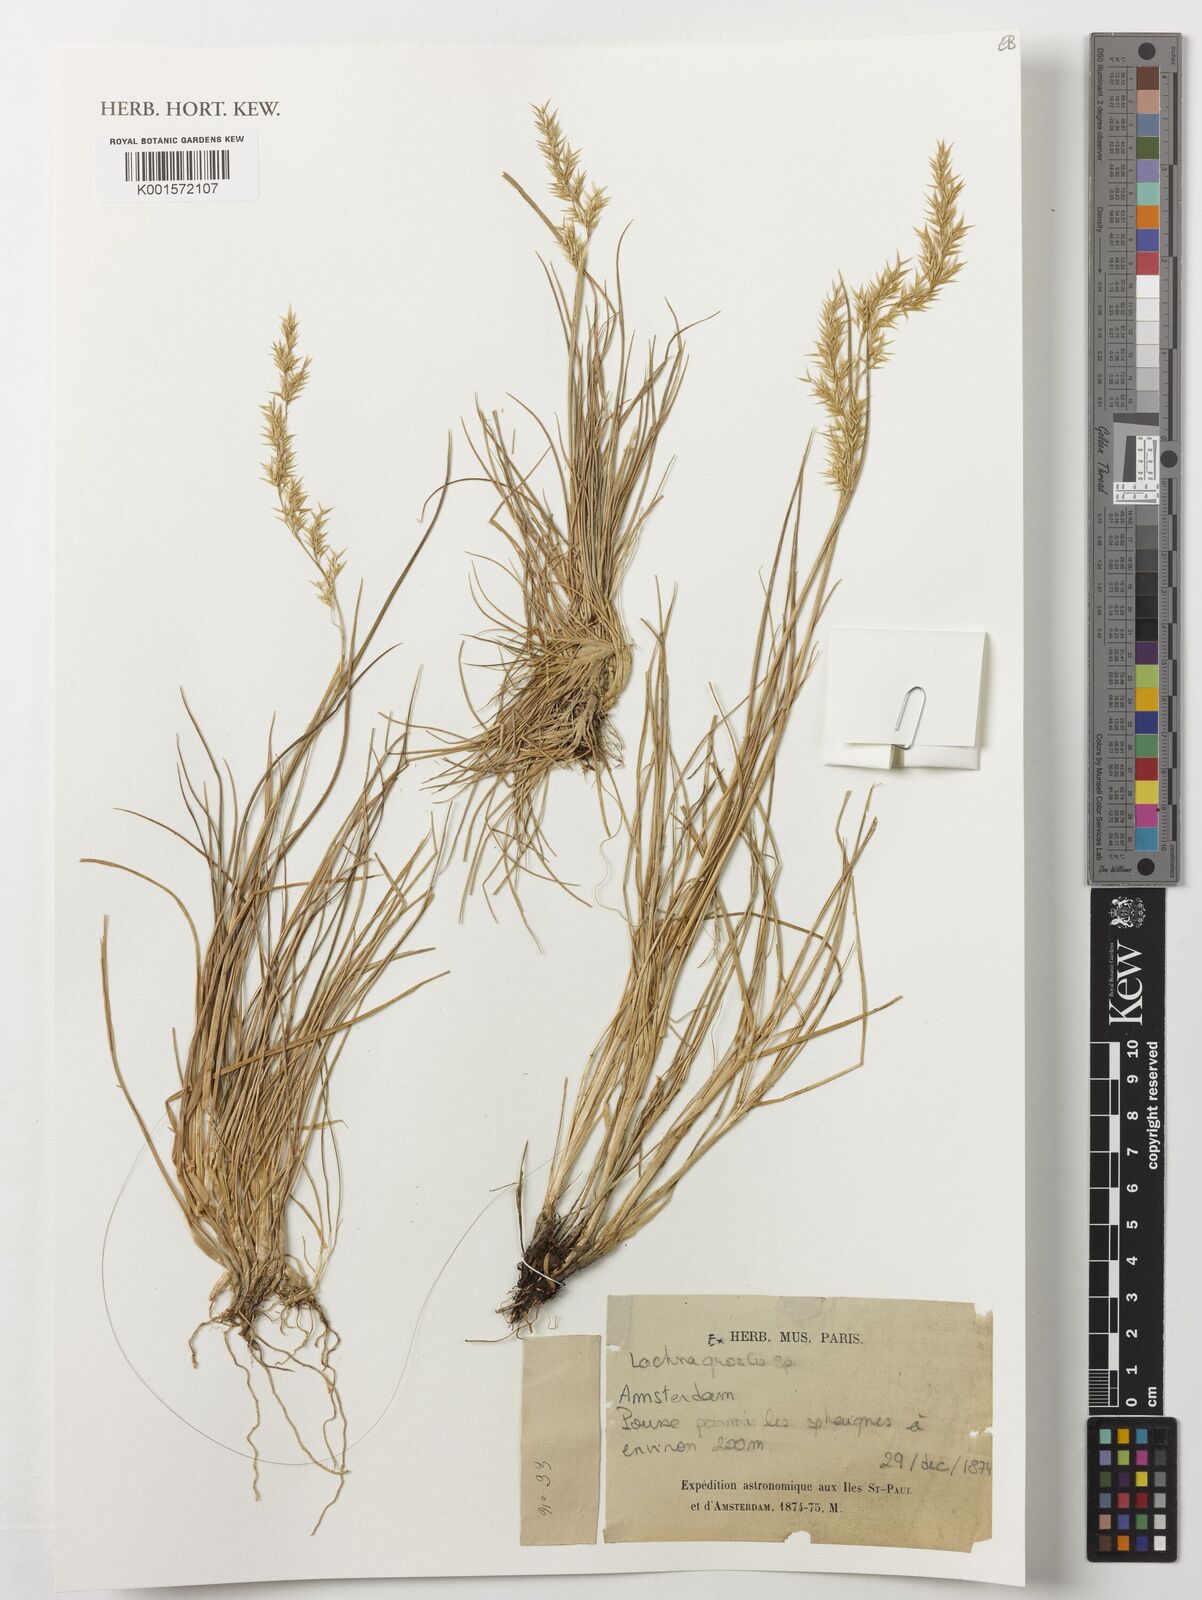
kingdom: Plantae
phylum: Tracheophyta
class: Liliopsida
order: Poales
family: Poaceae
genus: Lachnagrostis
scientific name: Lachnagrostis
